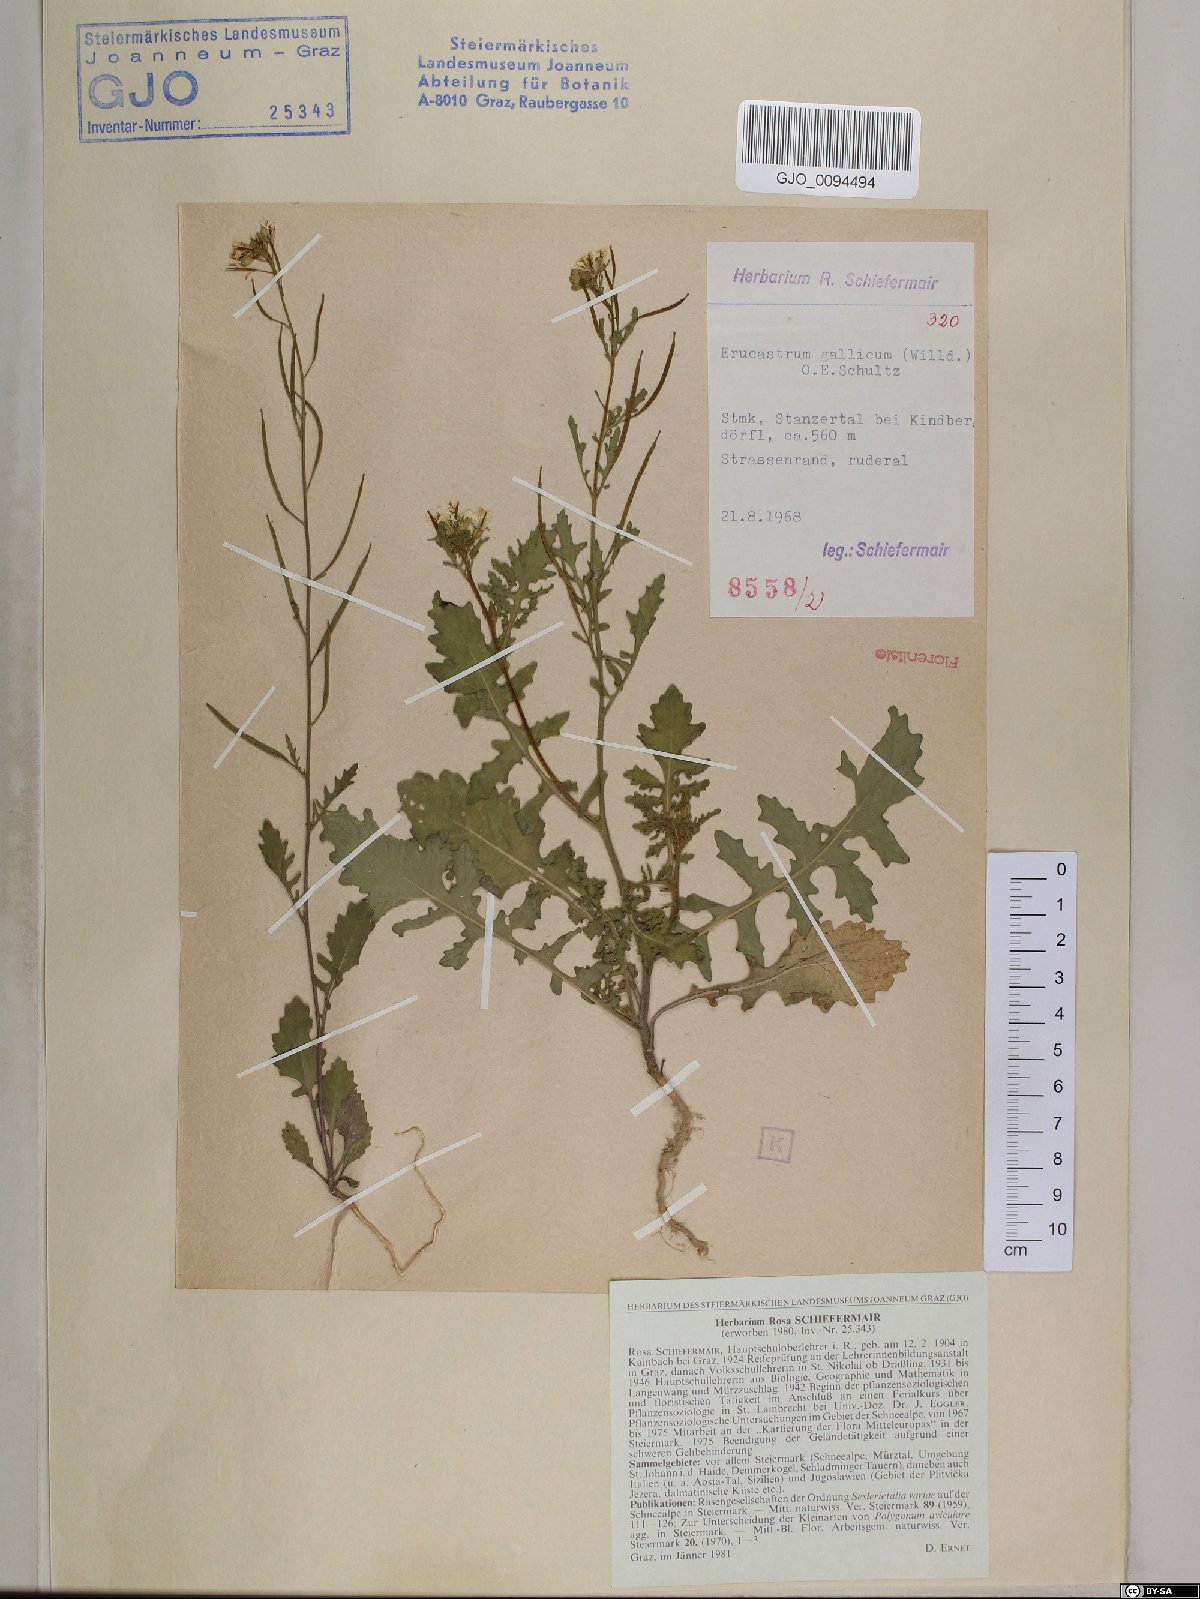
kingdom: Plantae
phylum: Tracheophyta
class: Magnoliopsida
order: Brassicales
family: Brassicaceae
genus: Erucastrum
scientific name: Erucastrum gallicum
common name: Hairy rocket
